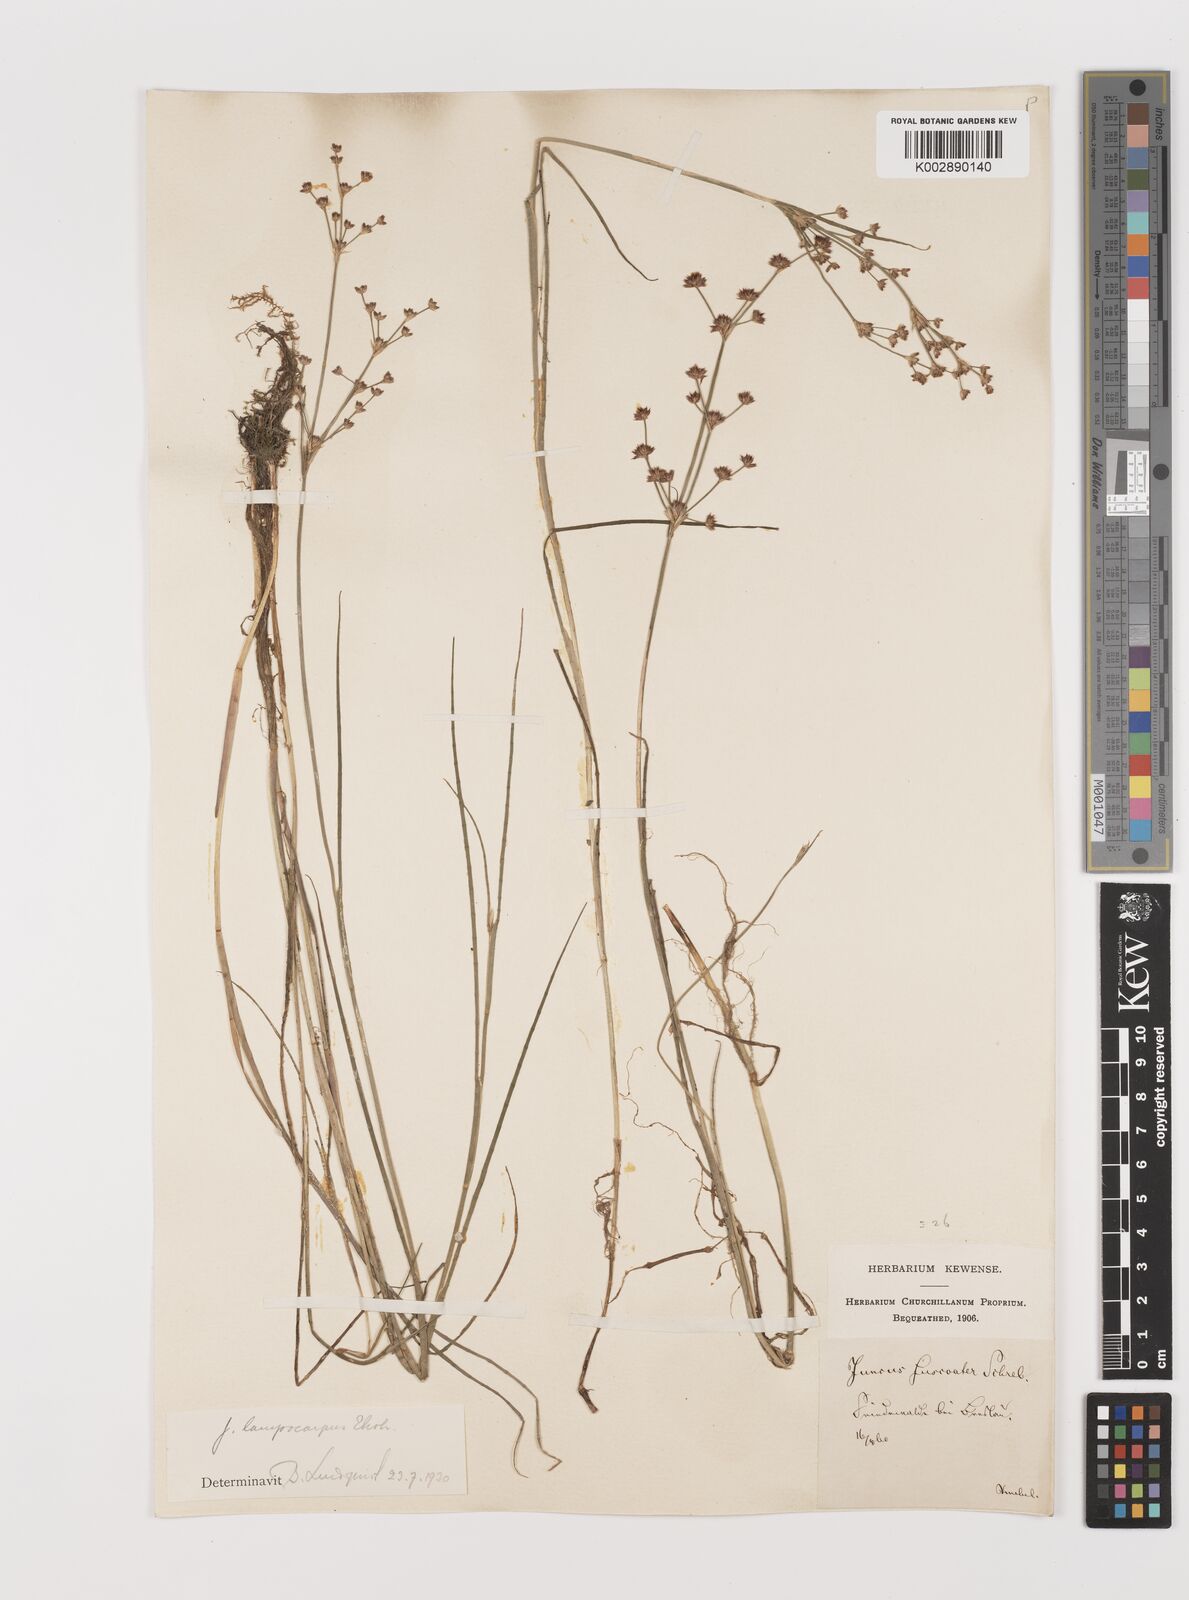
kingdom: Plantae
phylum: Tracheophyta
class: Liliopsida
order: Poales
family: Juncaceae
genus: Juncus
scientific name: Juncus articulatus
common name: Jointed rush
